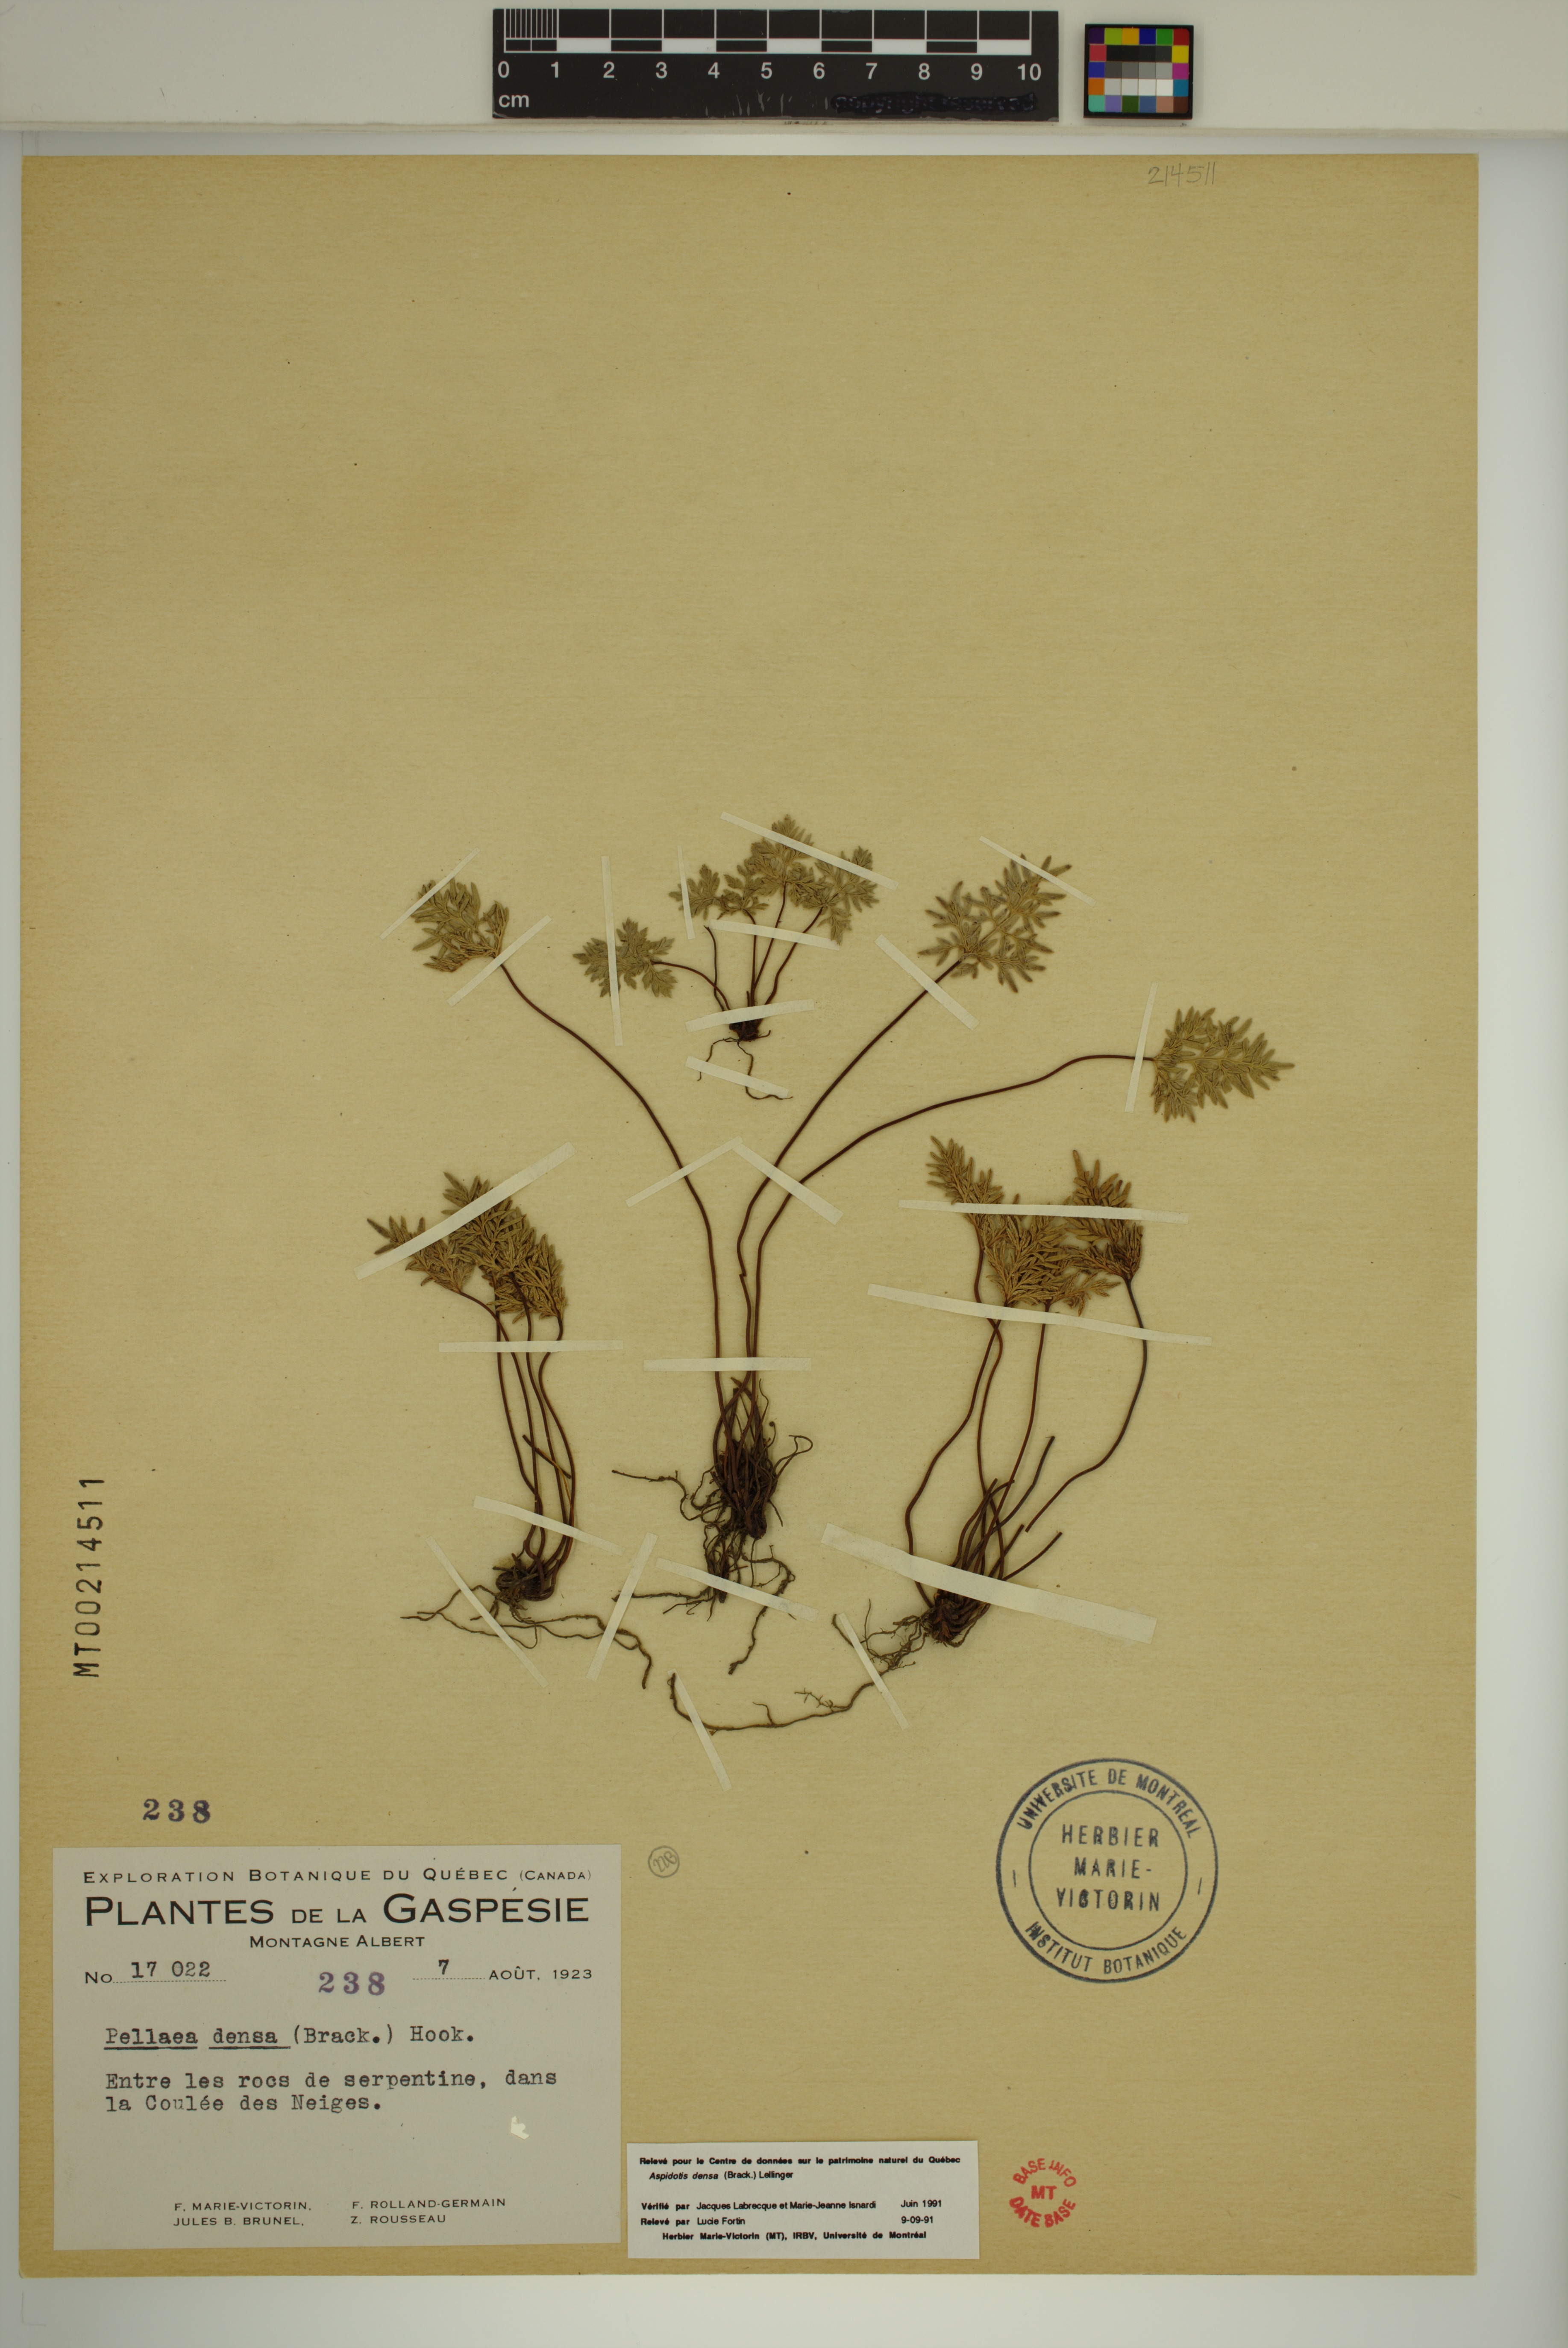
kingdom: Plantae
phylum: Tracheophyta
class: Polypodiopsida
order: Polypodiales
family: Pteridaceae
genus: Aspidotis
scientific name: Aspidotis densa
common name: Indian's dream
